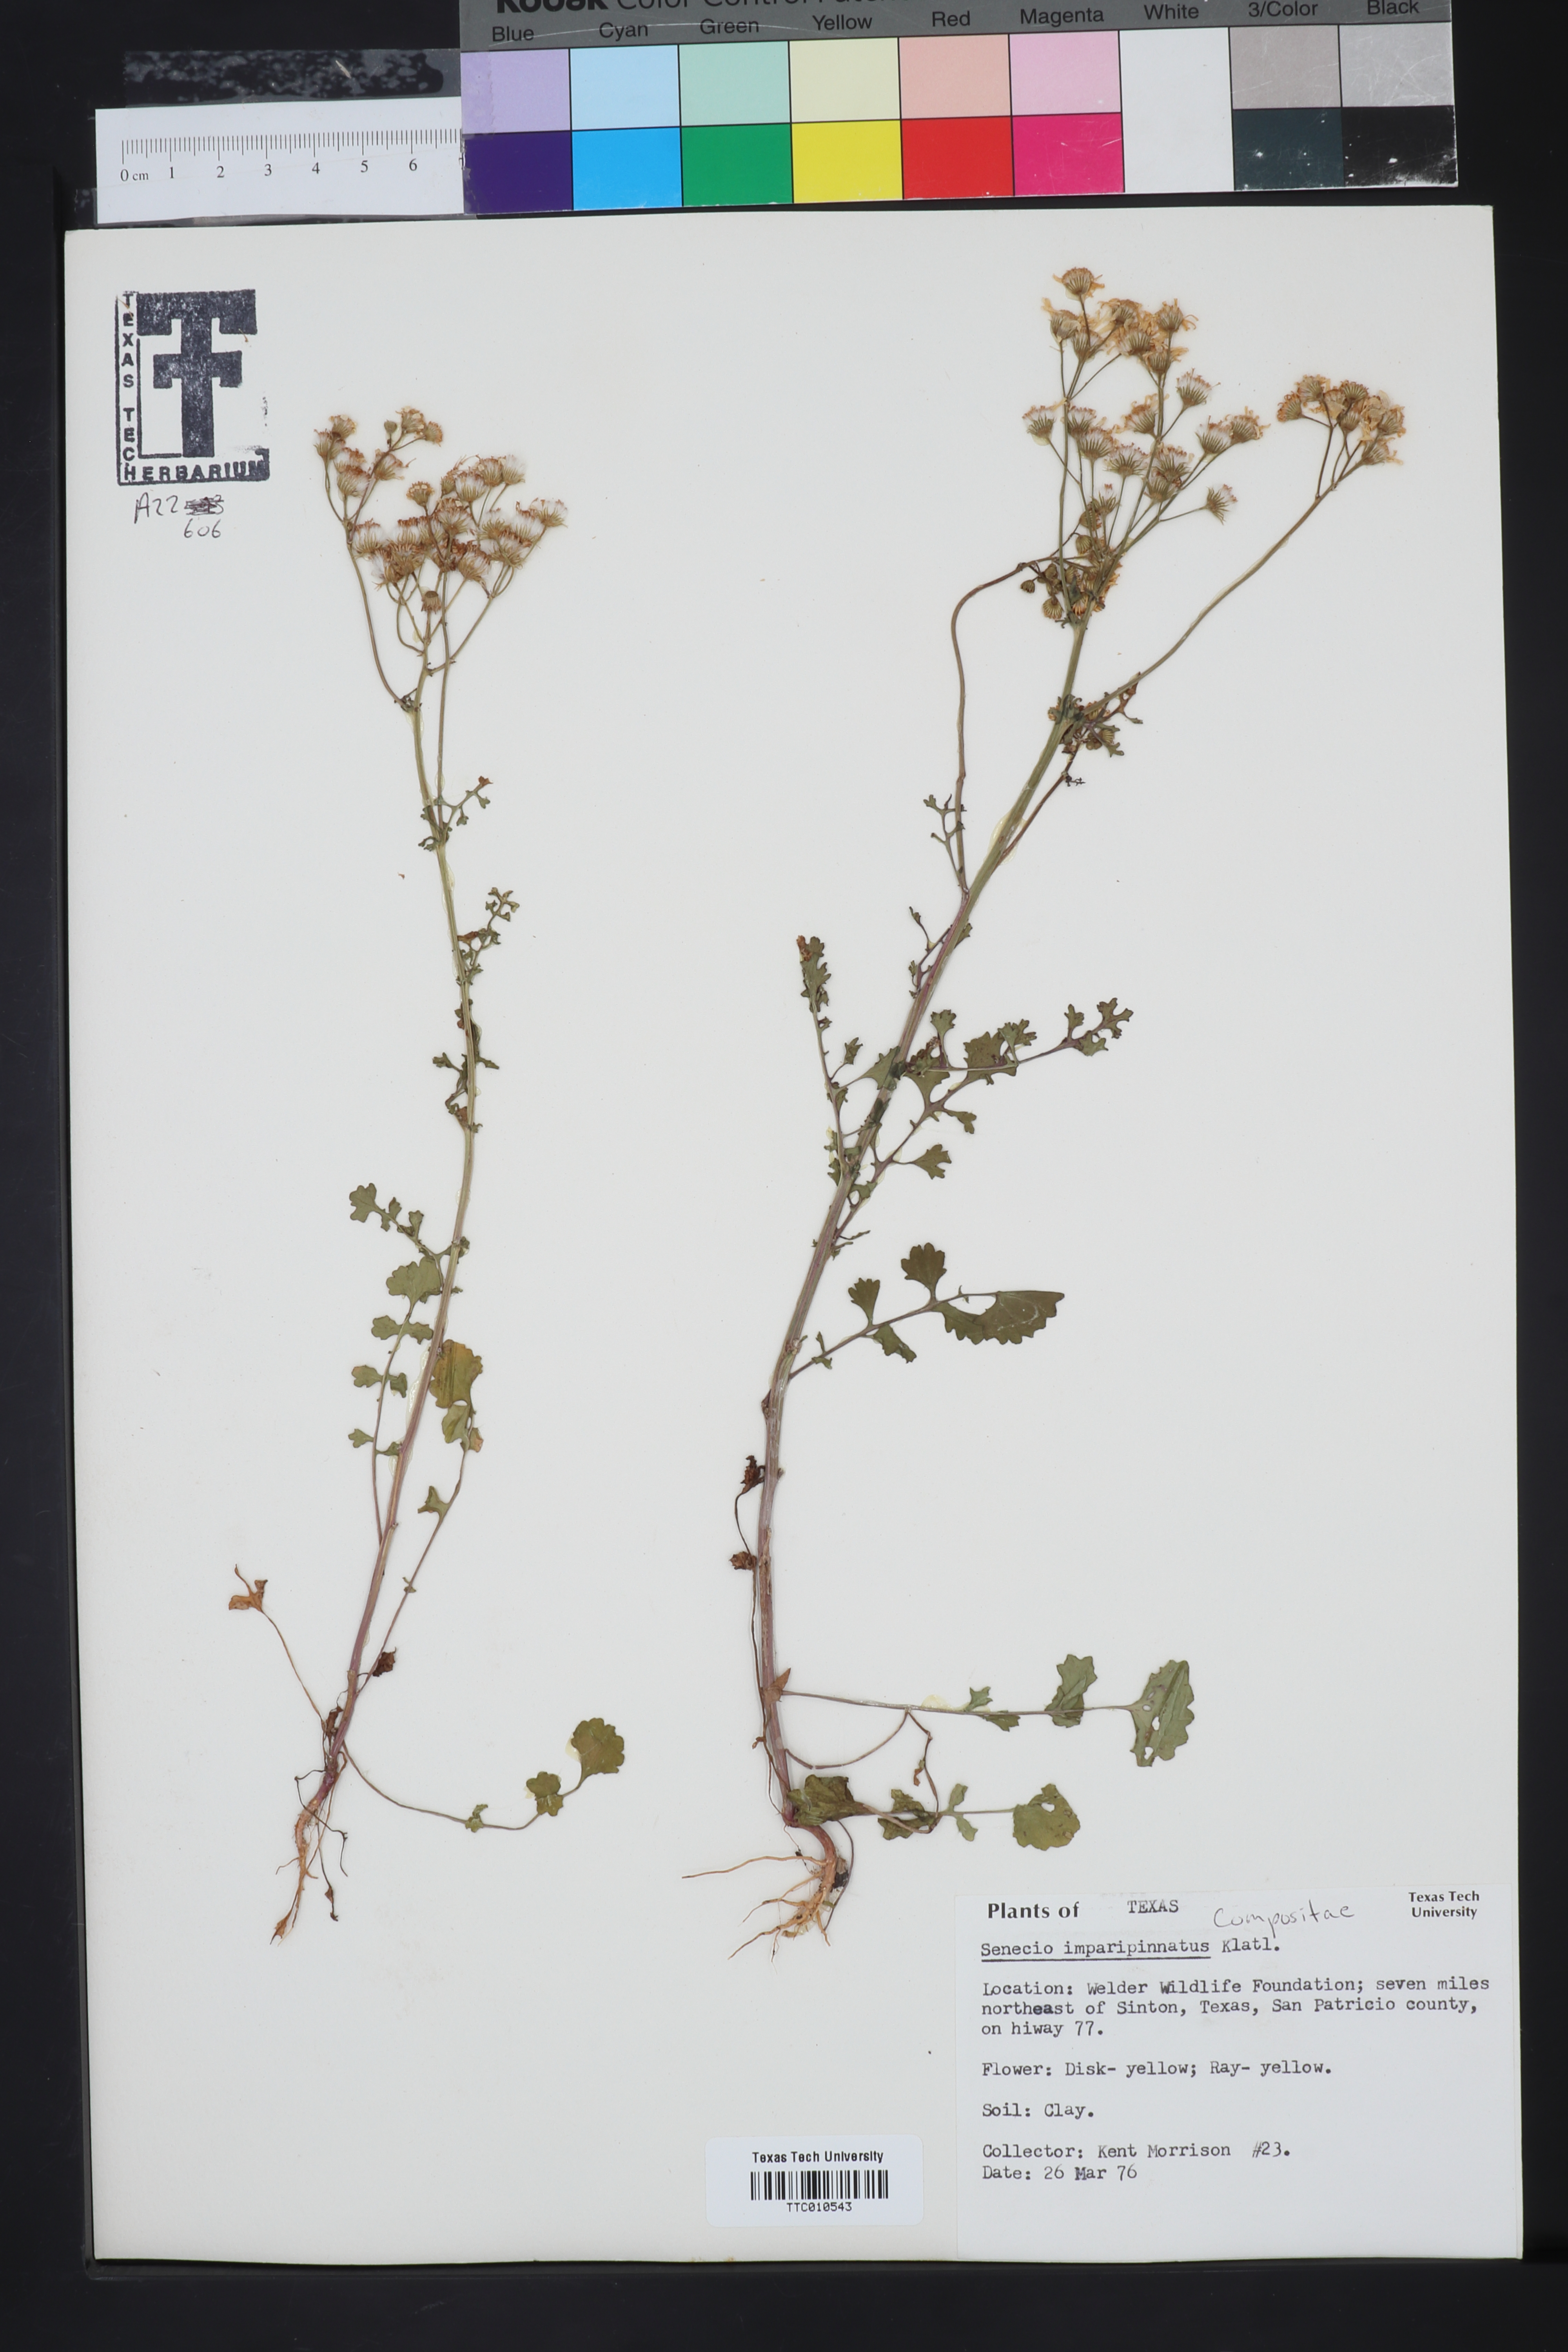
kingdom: Plantae
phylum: Tracheophyta
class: Magnoliopsida
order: Asterales
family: Asteraceae
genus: Packera
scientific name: Packera tampicana
